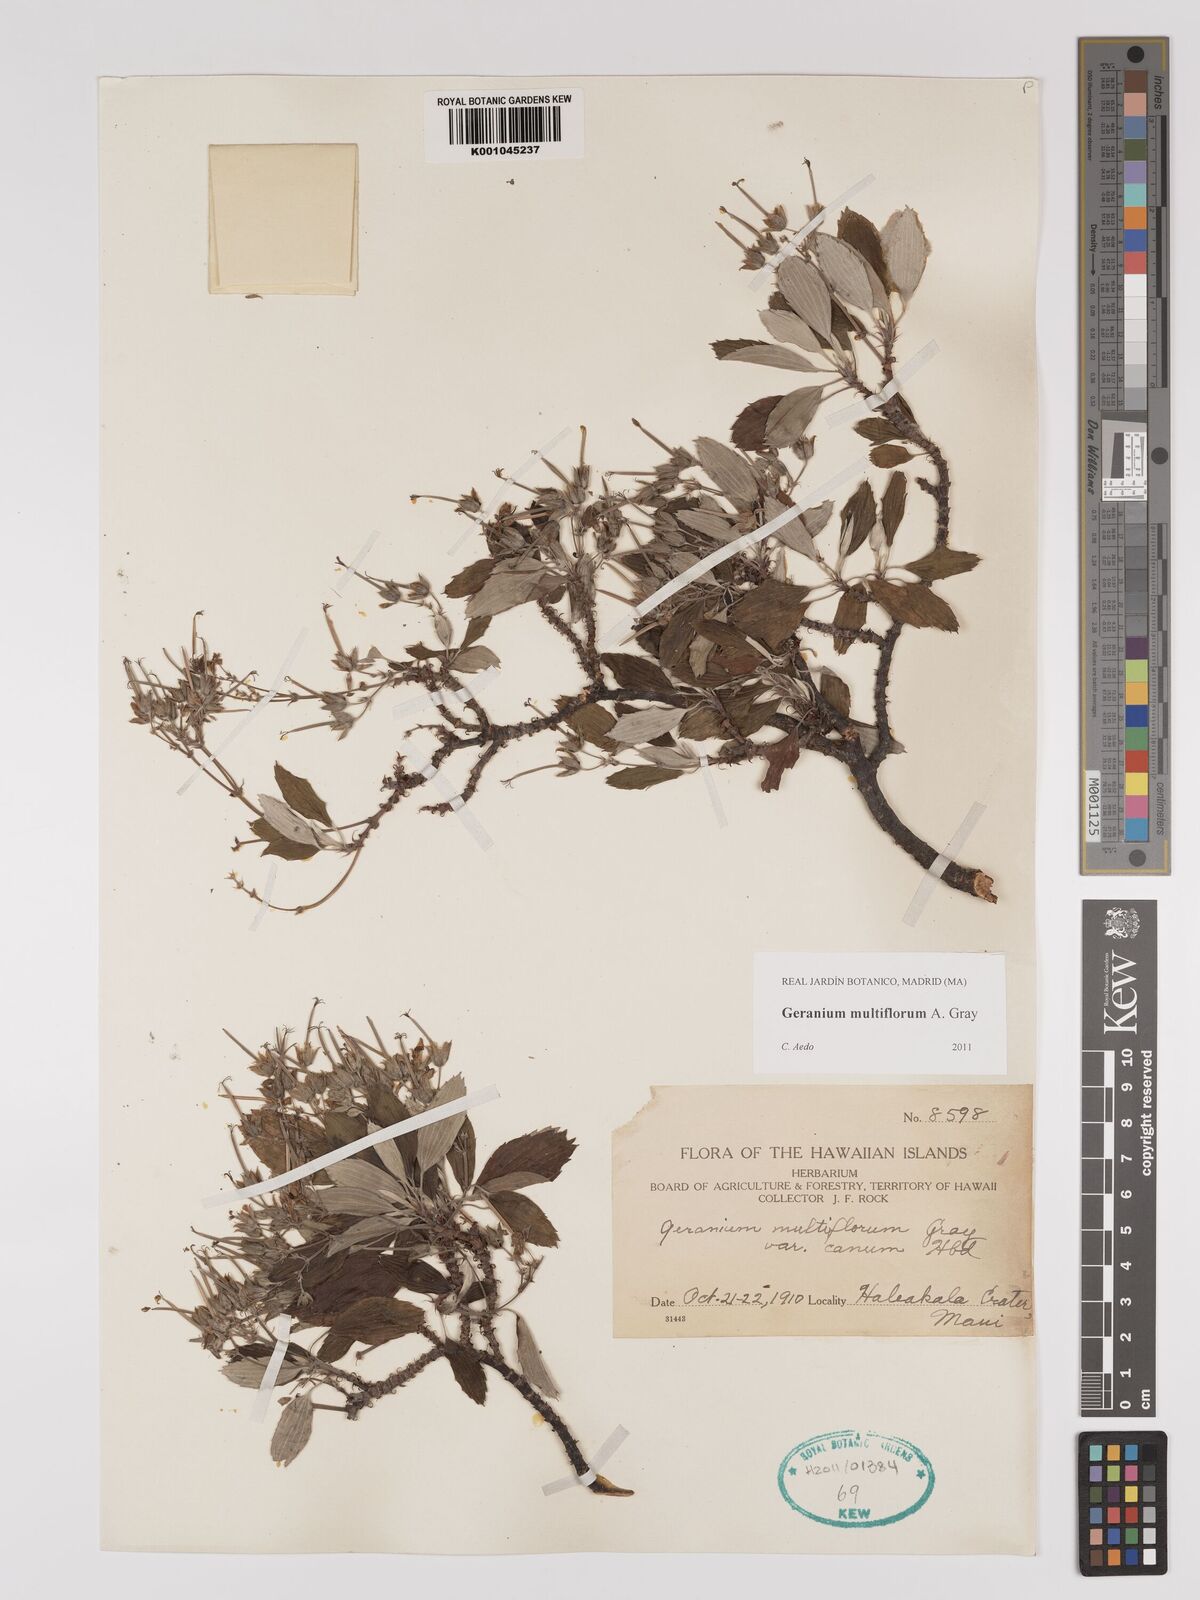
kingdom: Plantae
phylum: Tracheophyta
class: Magnoliopsida
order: Geraniales
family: Geraniaceae
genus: Geranium
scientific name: Geranium multiflorum
